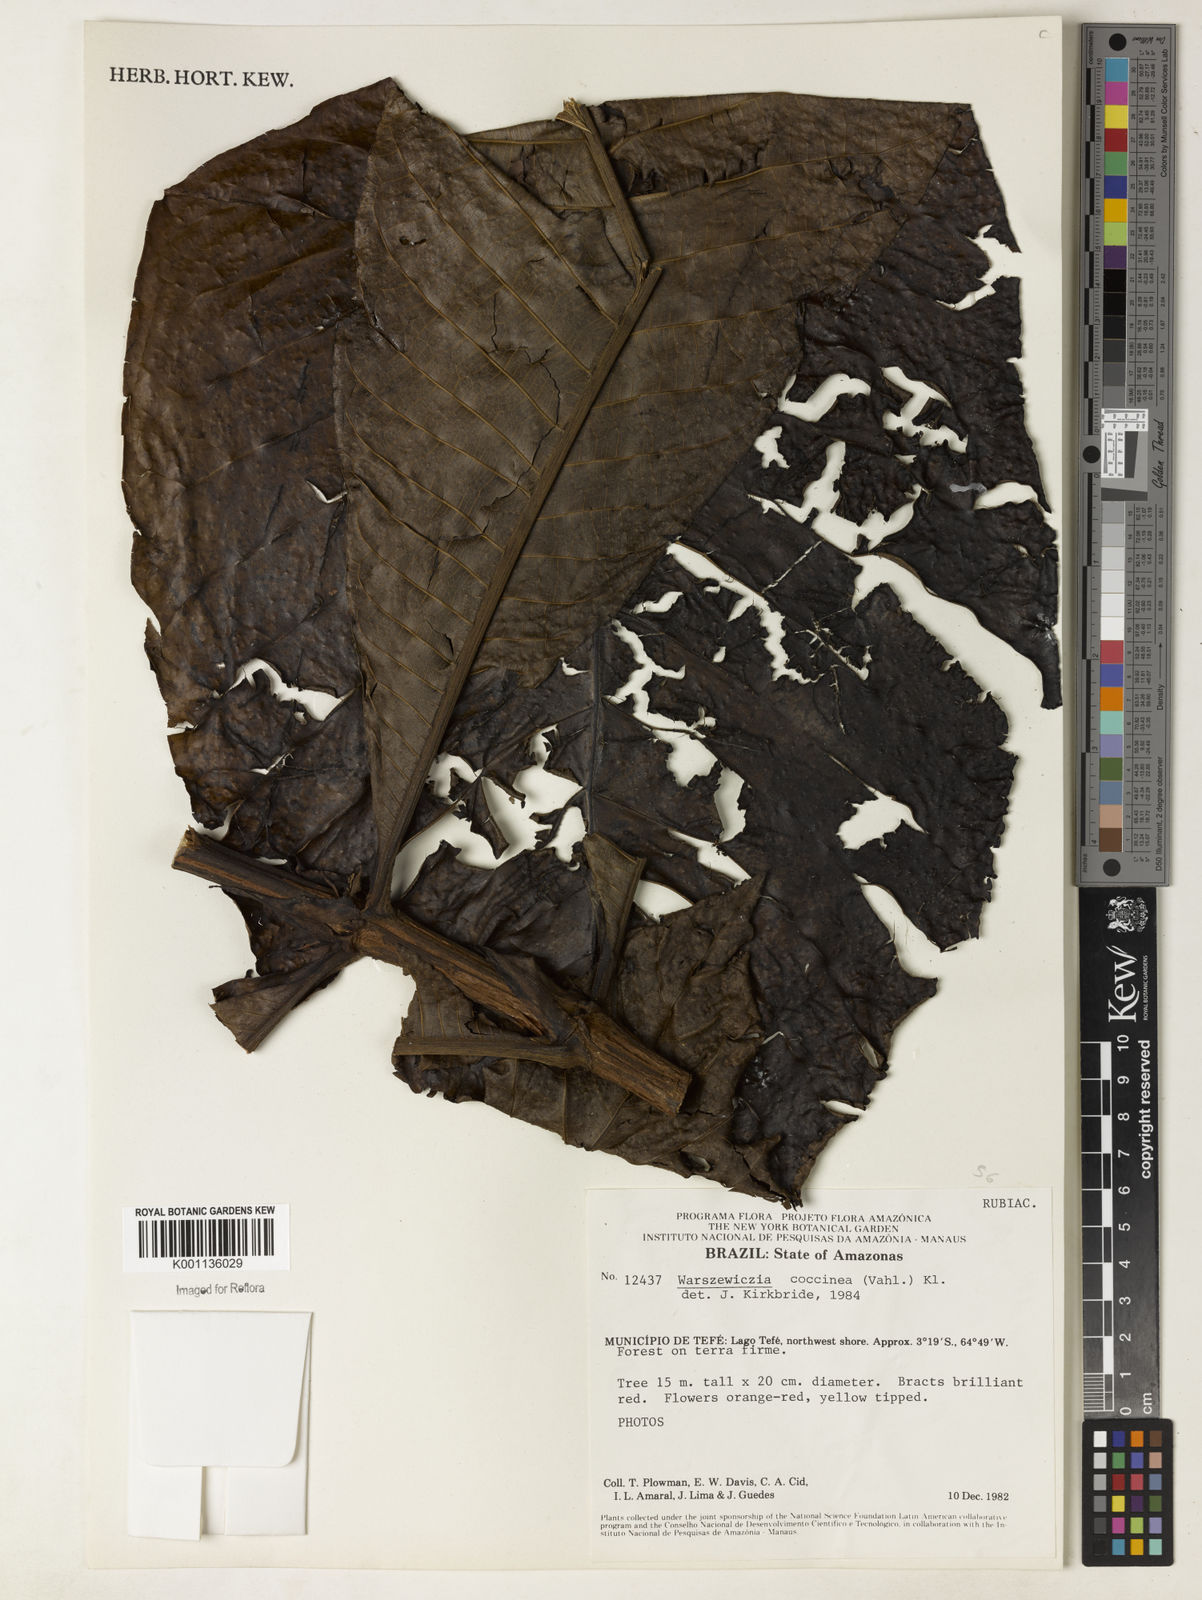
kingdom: Plantae
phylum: Tracheophyta
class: Magnoliopsida
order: Gentianales
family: Rubiaceae
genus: Warszewiczia
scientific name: Warszewiczia coccinea
